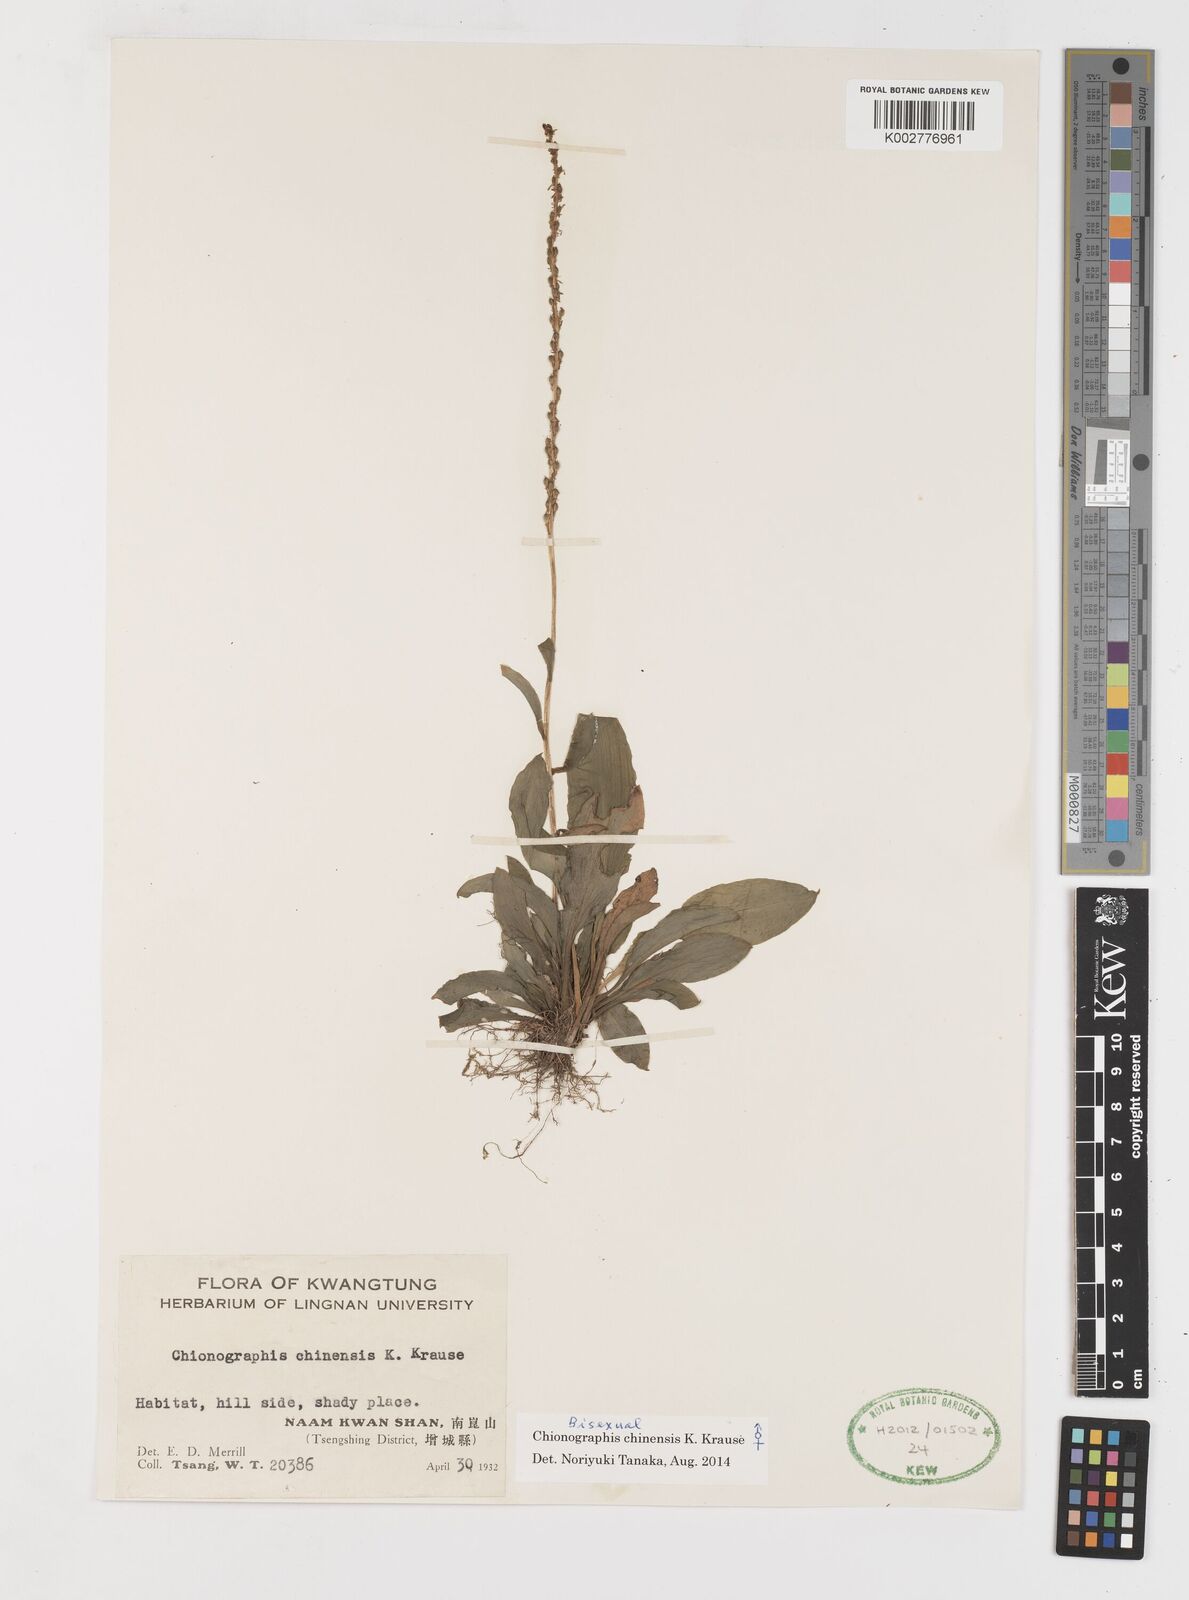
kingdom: Plantae
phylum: Tracheophyta
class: Liliopsida
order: Liliales
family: Melanthiaceae
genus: Chamaelirium
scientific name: Chamaelirium chinense
